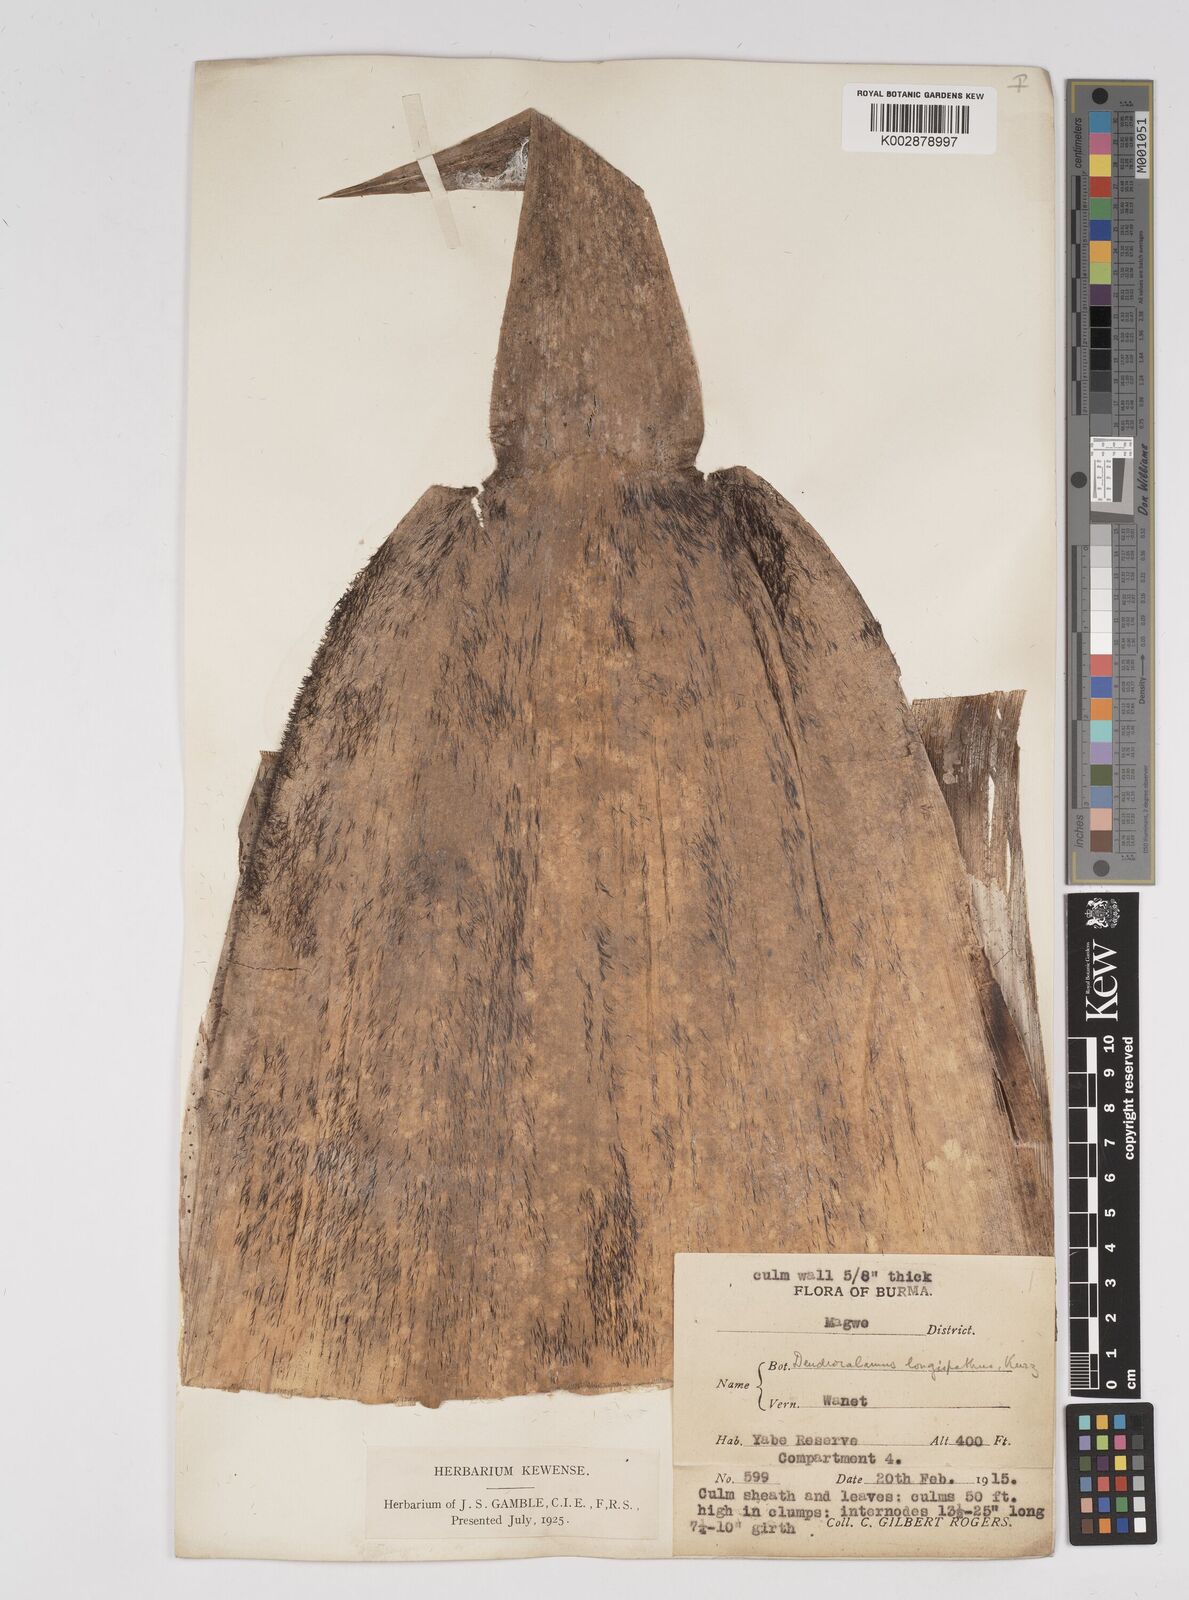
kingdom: Plantae
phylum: Tracheophyta
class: Liliopsida
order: Poales
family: Poaceae
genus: Dendrocalamus
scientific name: Dendrocalamus longispathus
